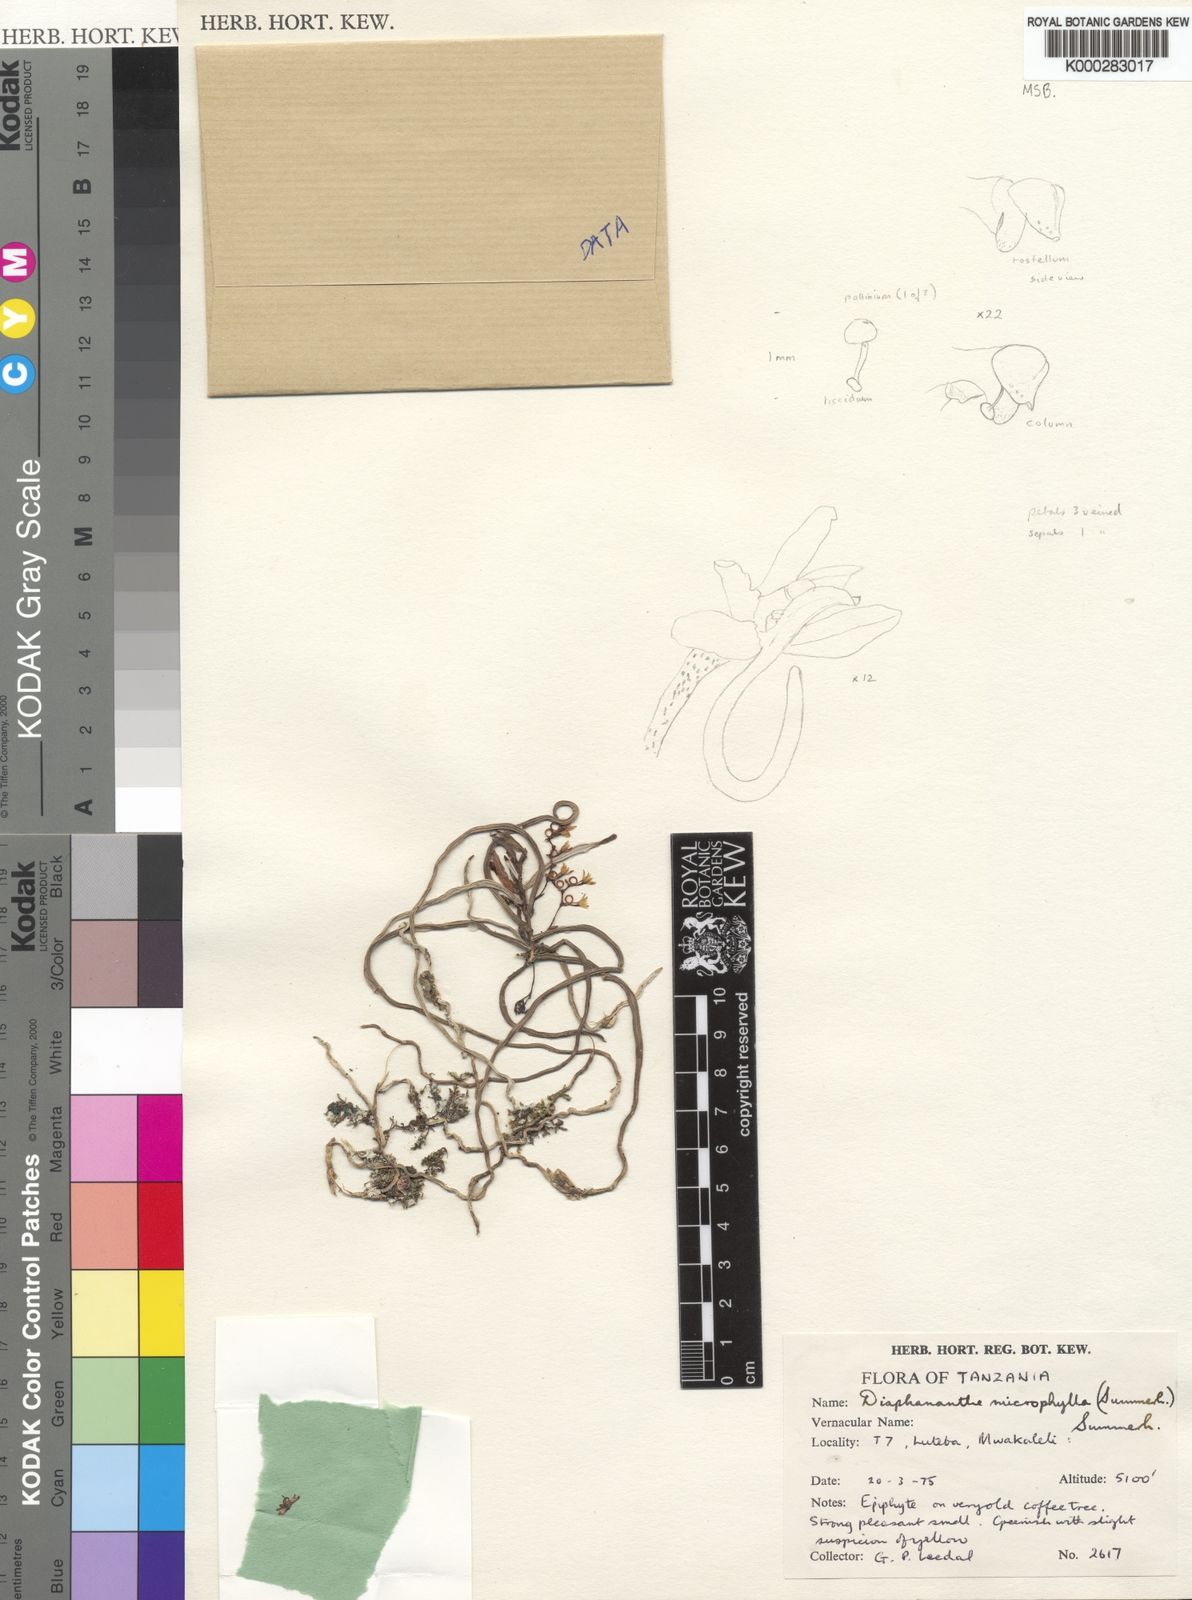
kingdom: Plantae
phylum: Tracheophyta
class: Liliopsida
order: Asparagales
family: Orchidaceae
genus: Rhipidoglossum
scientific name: Rhipidoglossum microphyllum
